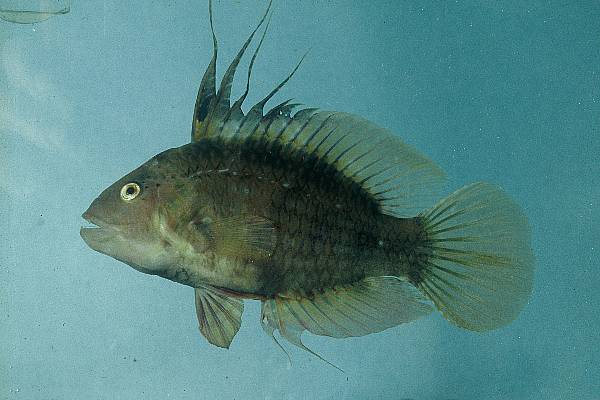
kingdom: Animalia
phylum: Chordata
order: Perciformes
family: Labridae
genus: Pteragogus
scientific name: Pteragogus flagellifer
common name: Cocktail wrasse
